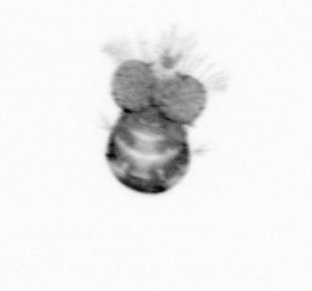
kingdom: Animalia
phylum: Arthropoda
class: Copepoda
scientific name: Copepoda
